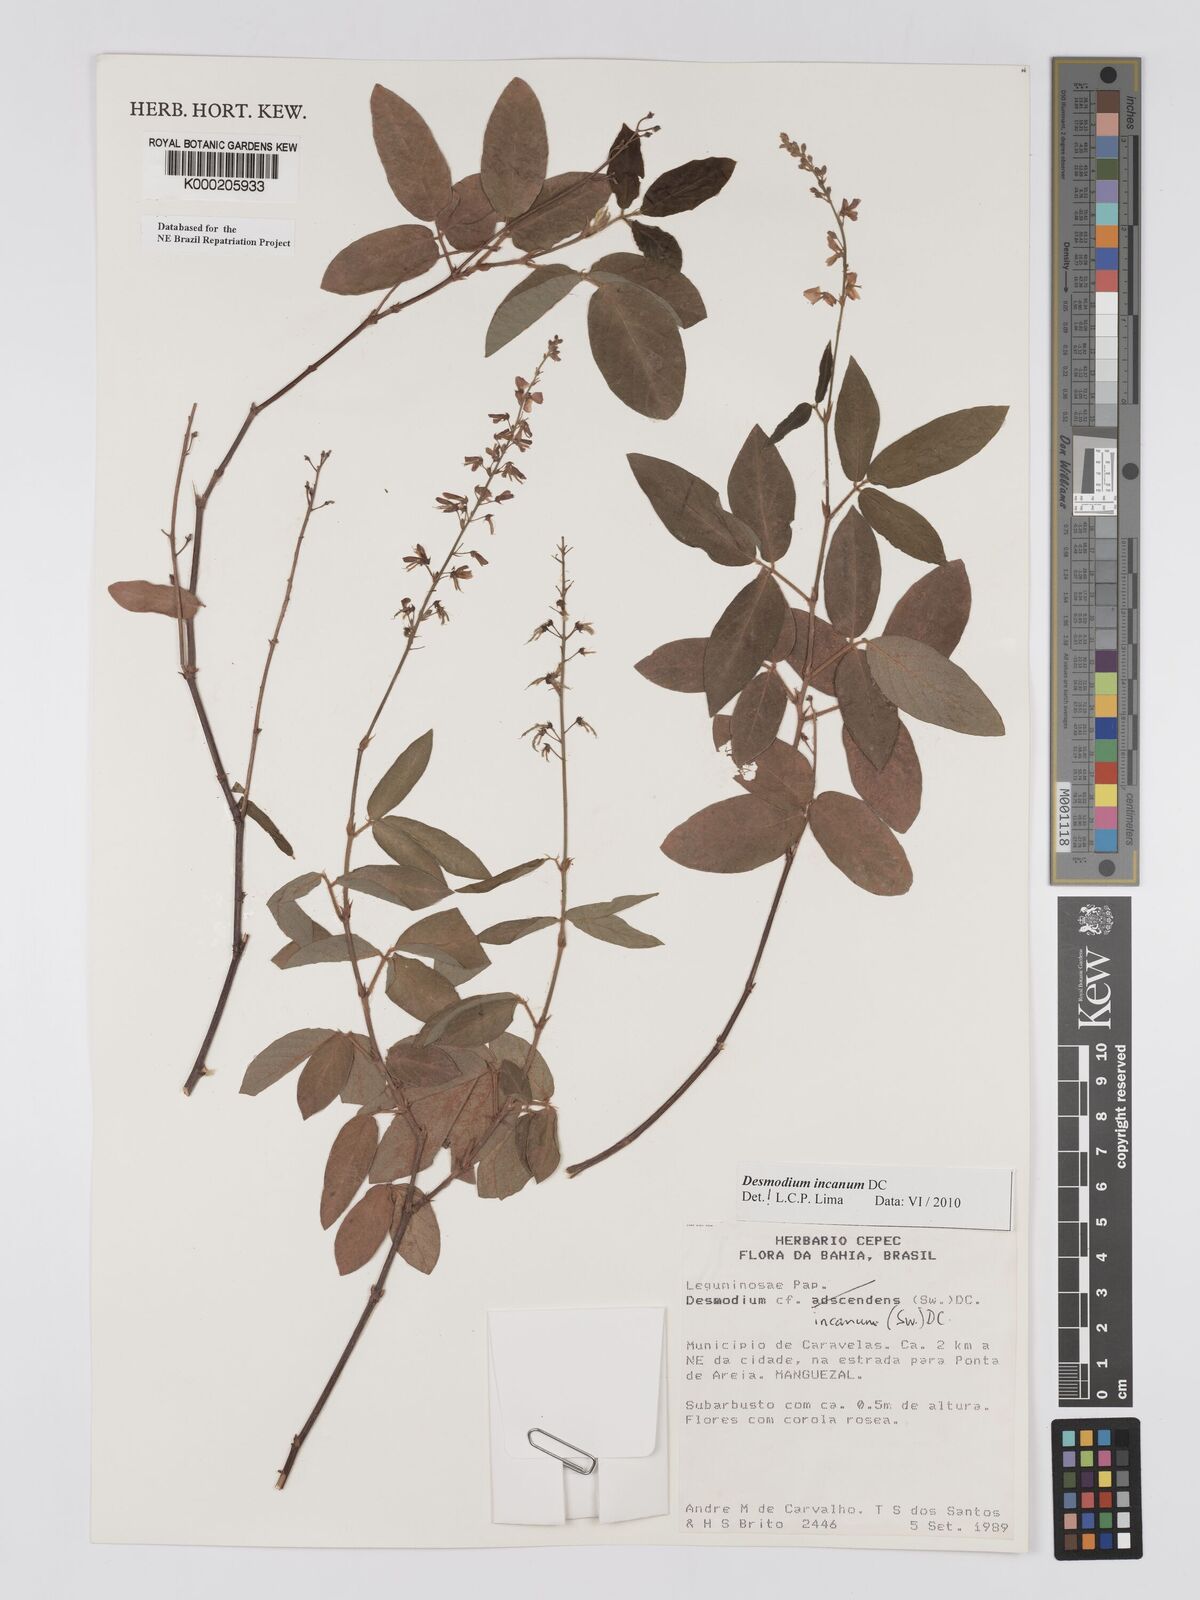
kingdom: Plantae
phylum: Tracheophyta
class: Magnoliopsida
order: Fabales
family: Fabaceae
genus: Desmodium
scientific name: Desmodium incanum
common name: Tickclover
